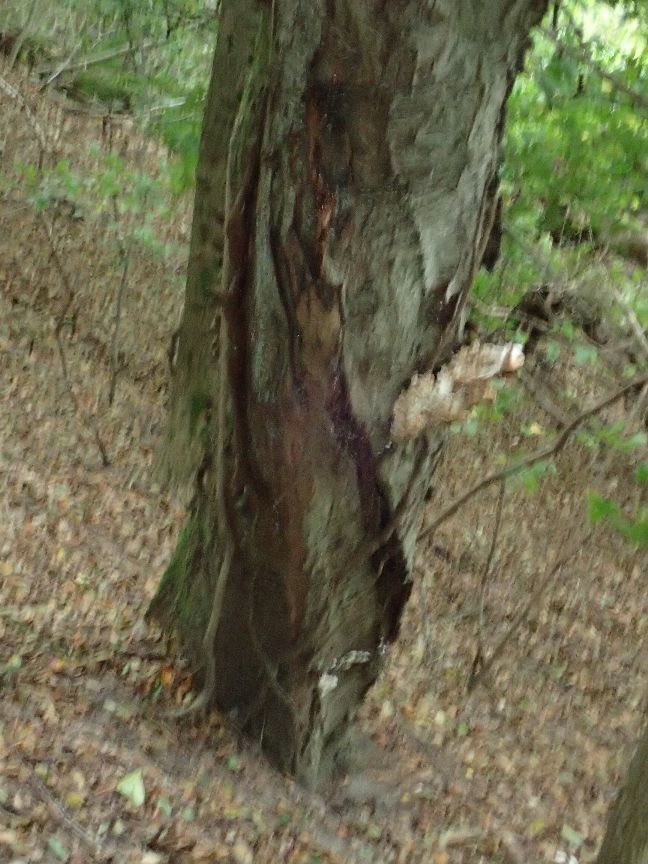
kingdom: Fungi
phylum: Basidiomycota
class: Agaricomycetes
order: Polyporales
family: Laetiporaceae
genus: Laetiporus
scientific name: Laetiporus sulphureus
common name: svovlporesvamp
